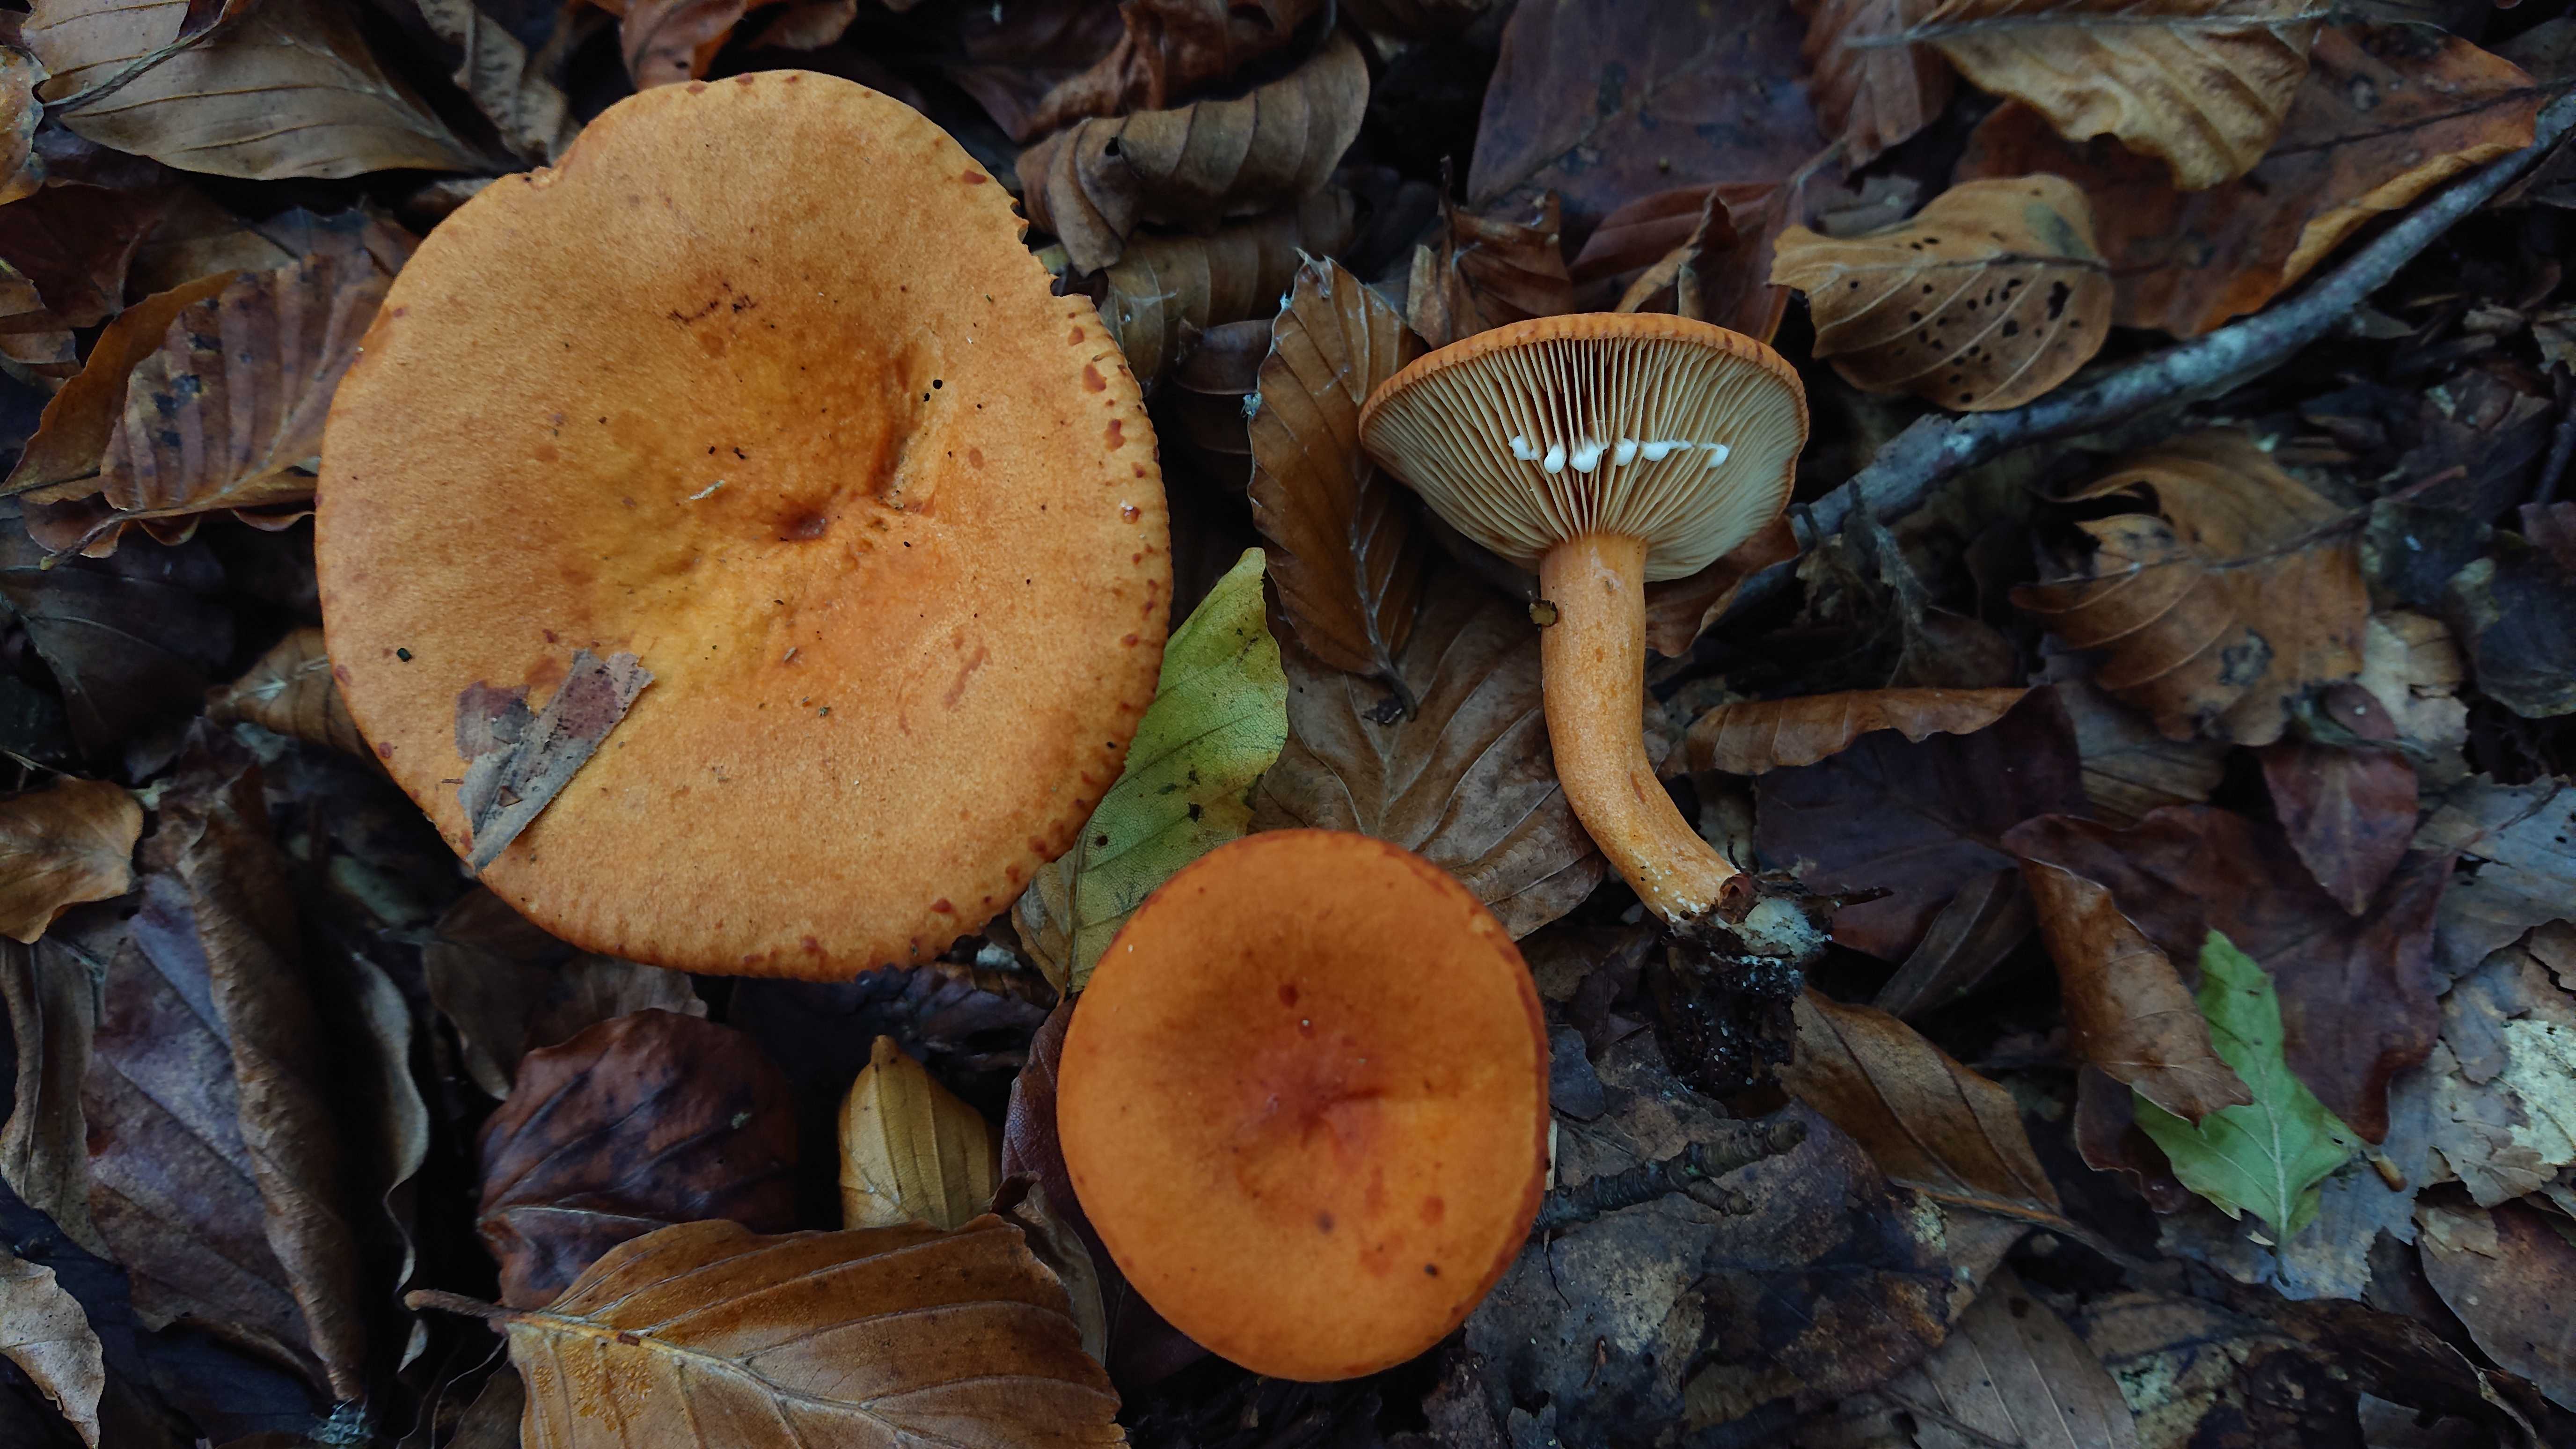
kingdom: Fungi
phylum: Basidiomycota
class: Agaricomycetes
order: Russulales
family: Russulaceae
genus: Lactarius
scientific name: Lactarius aurantiacus
